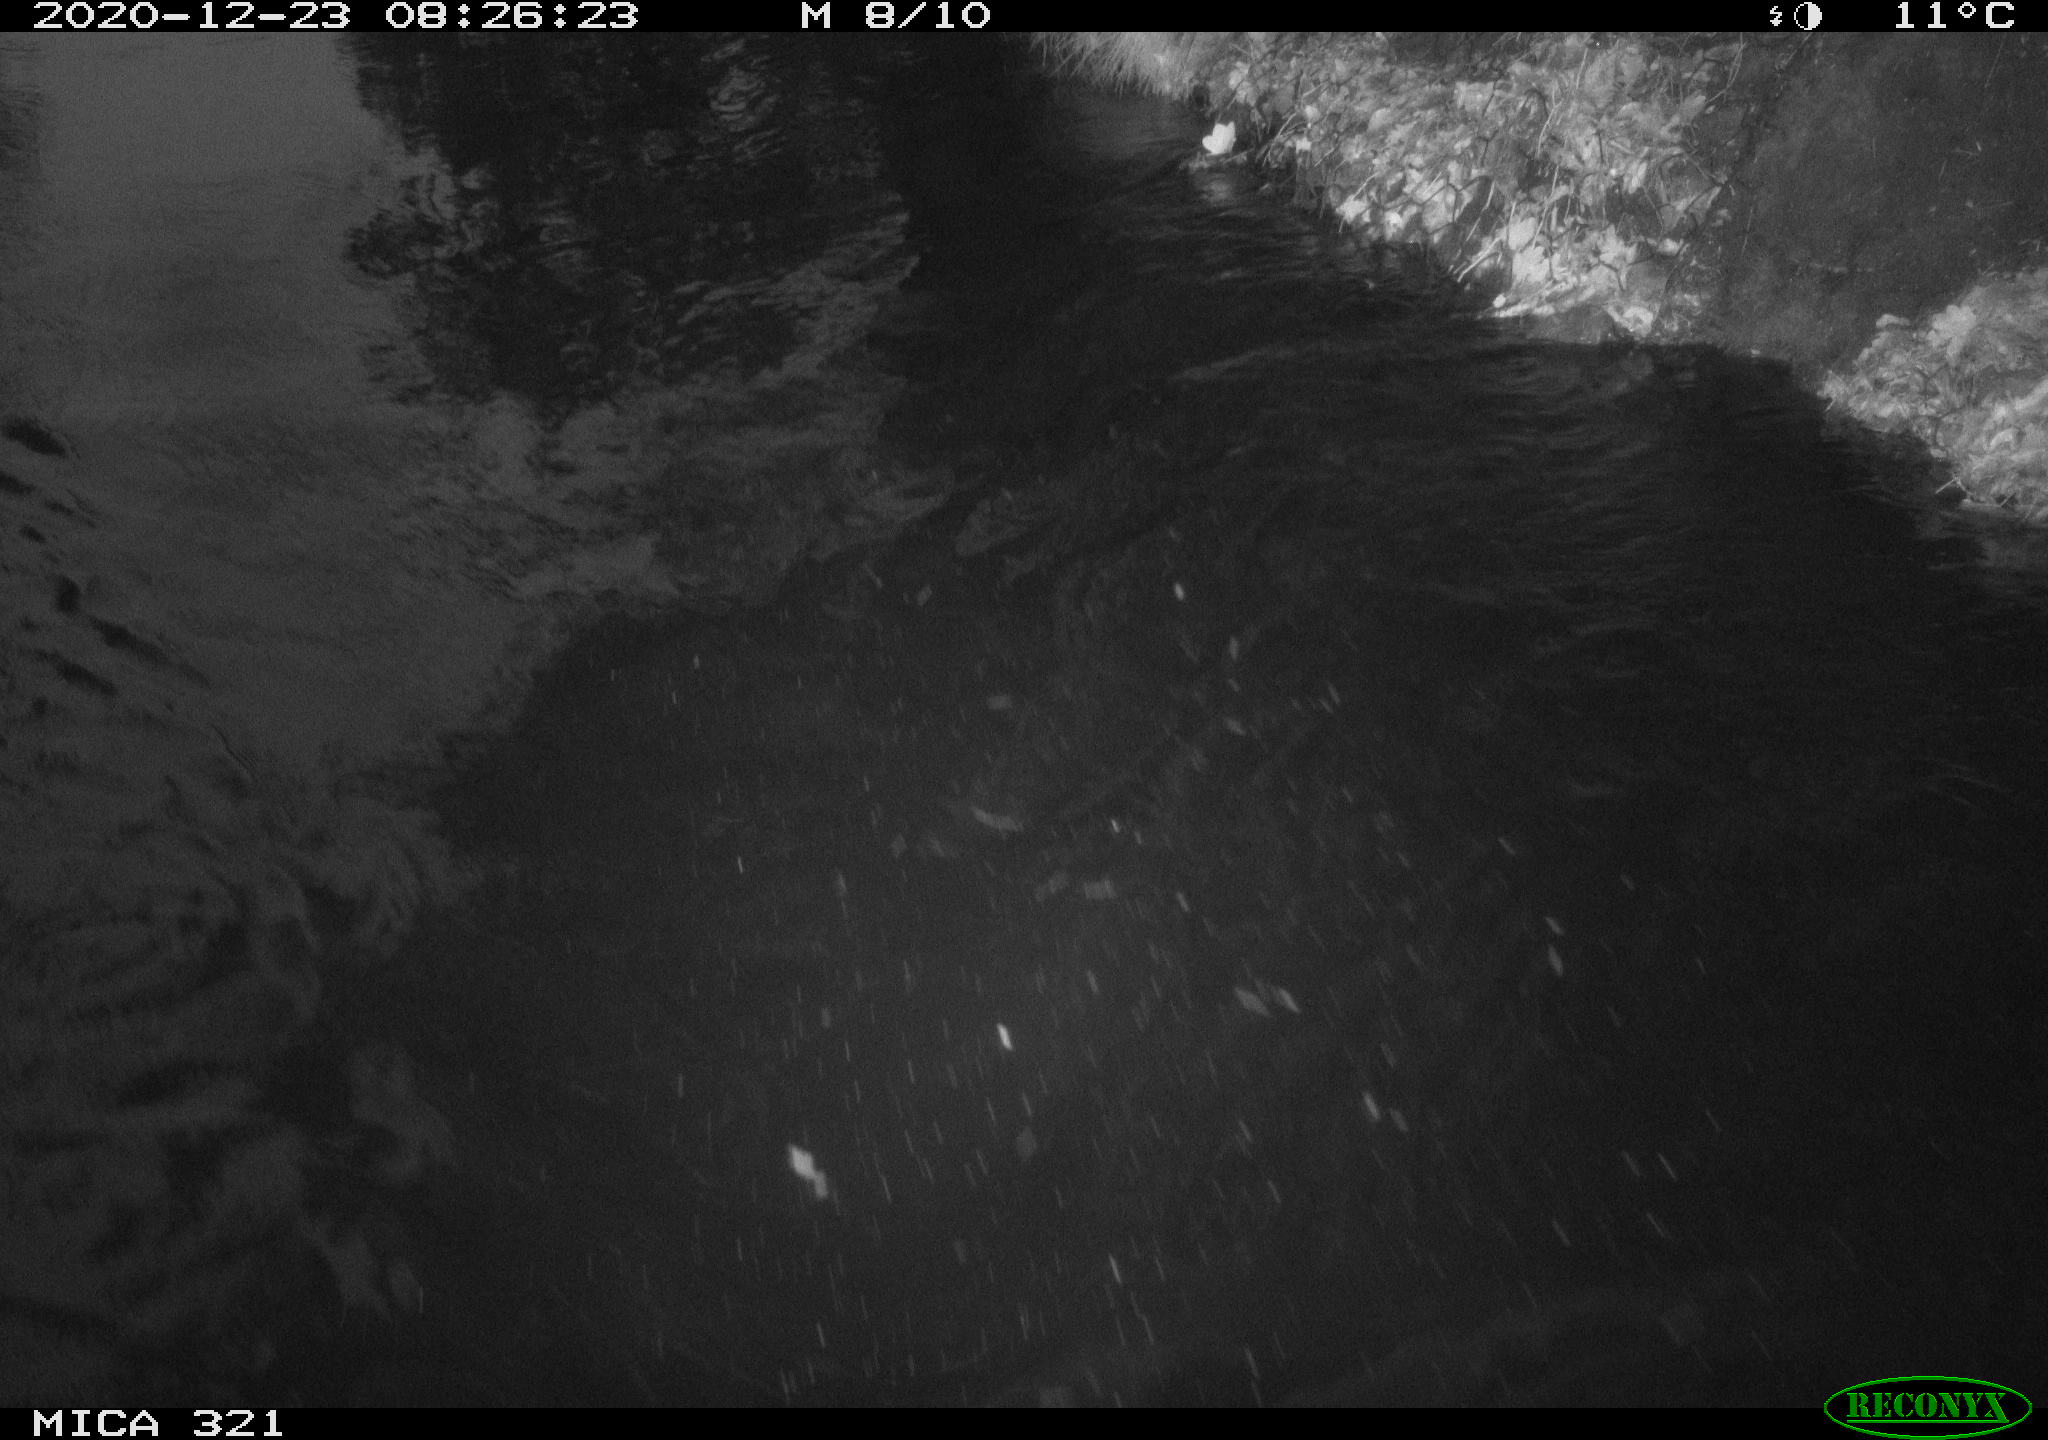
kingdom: Animalia
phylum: Chordata
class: Aves
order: Anseriformes
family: Anatidae
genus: Anas
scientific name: Anas platyrhynchos
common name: Mallard
